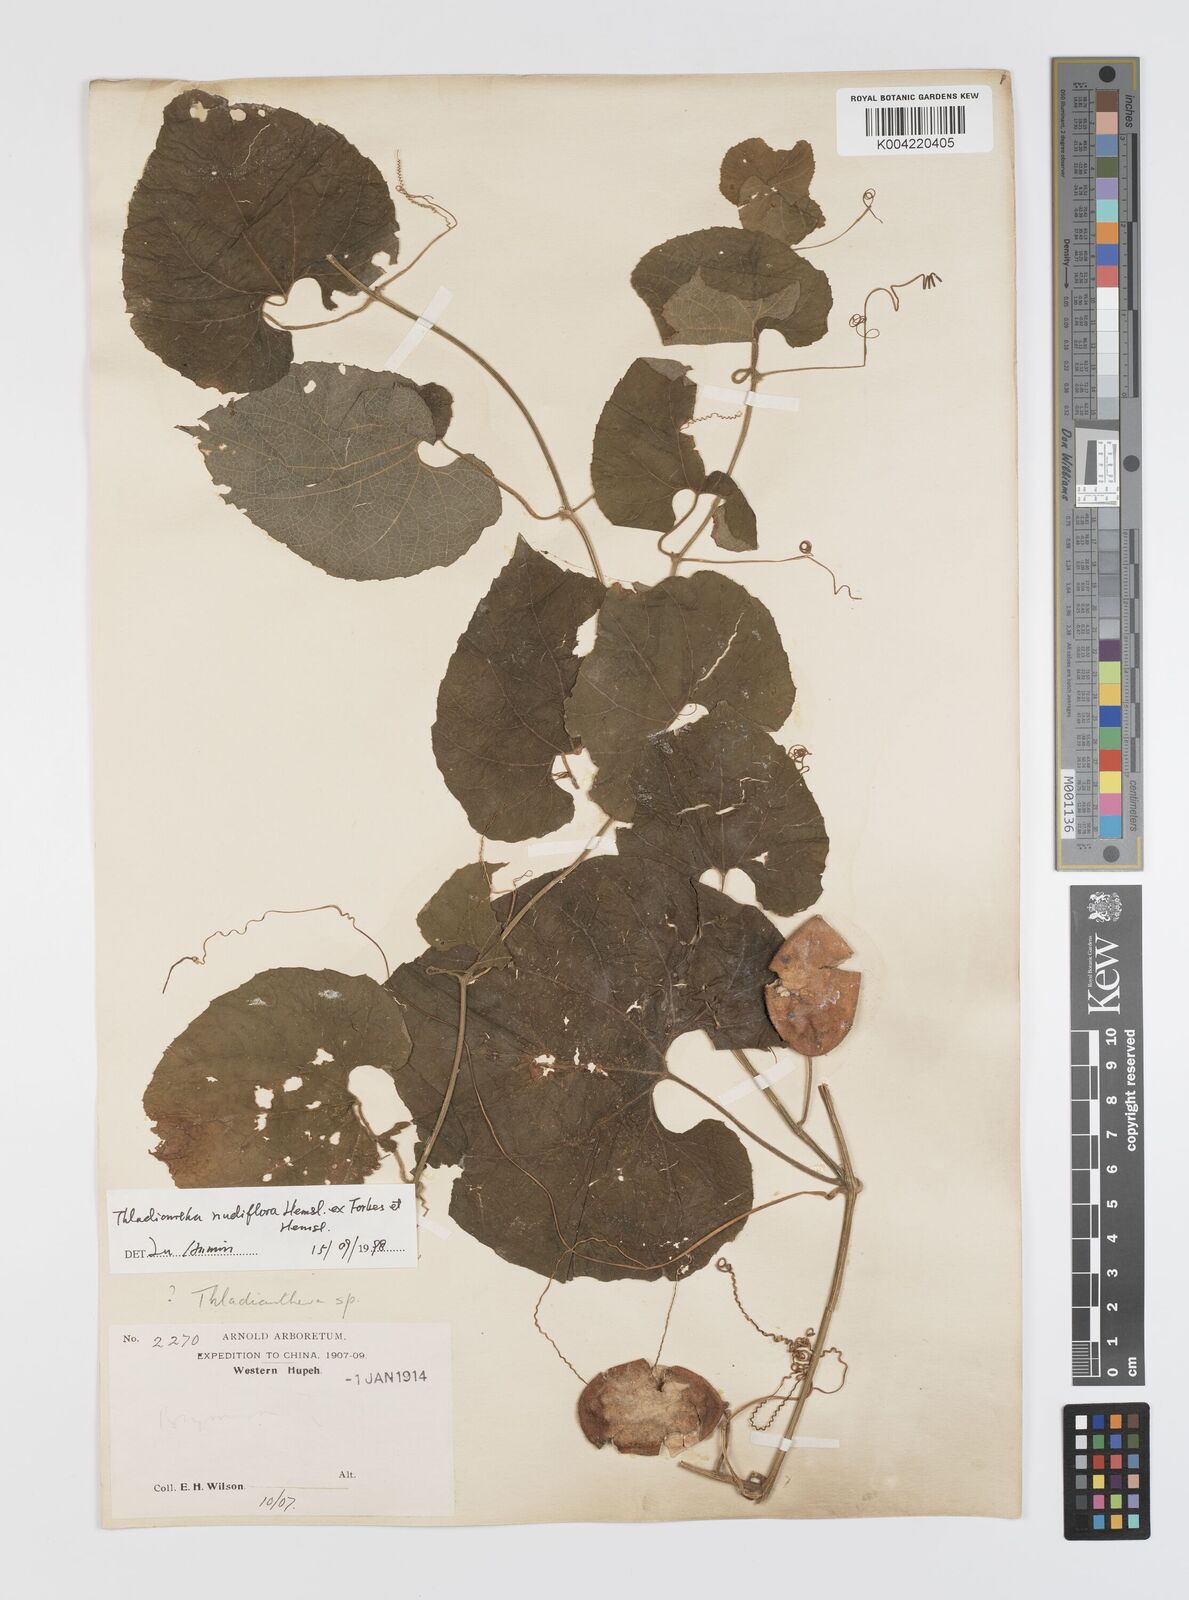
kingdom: Plantae
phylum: Tracheophyta
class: Magnoliopsida
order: Cucurbitales
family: Cucurbitaceae
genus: Thladiantha
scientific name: Thladiantha nudiflora
